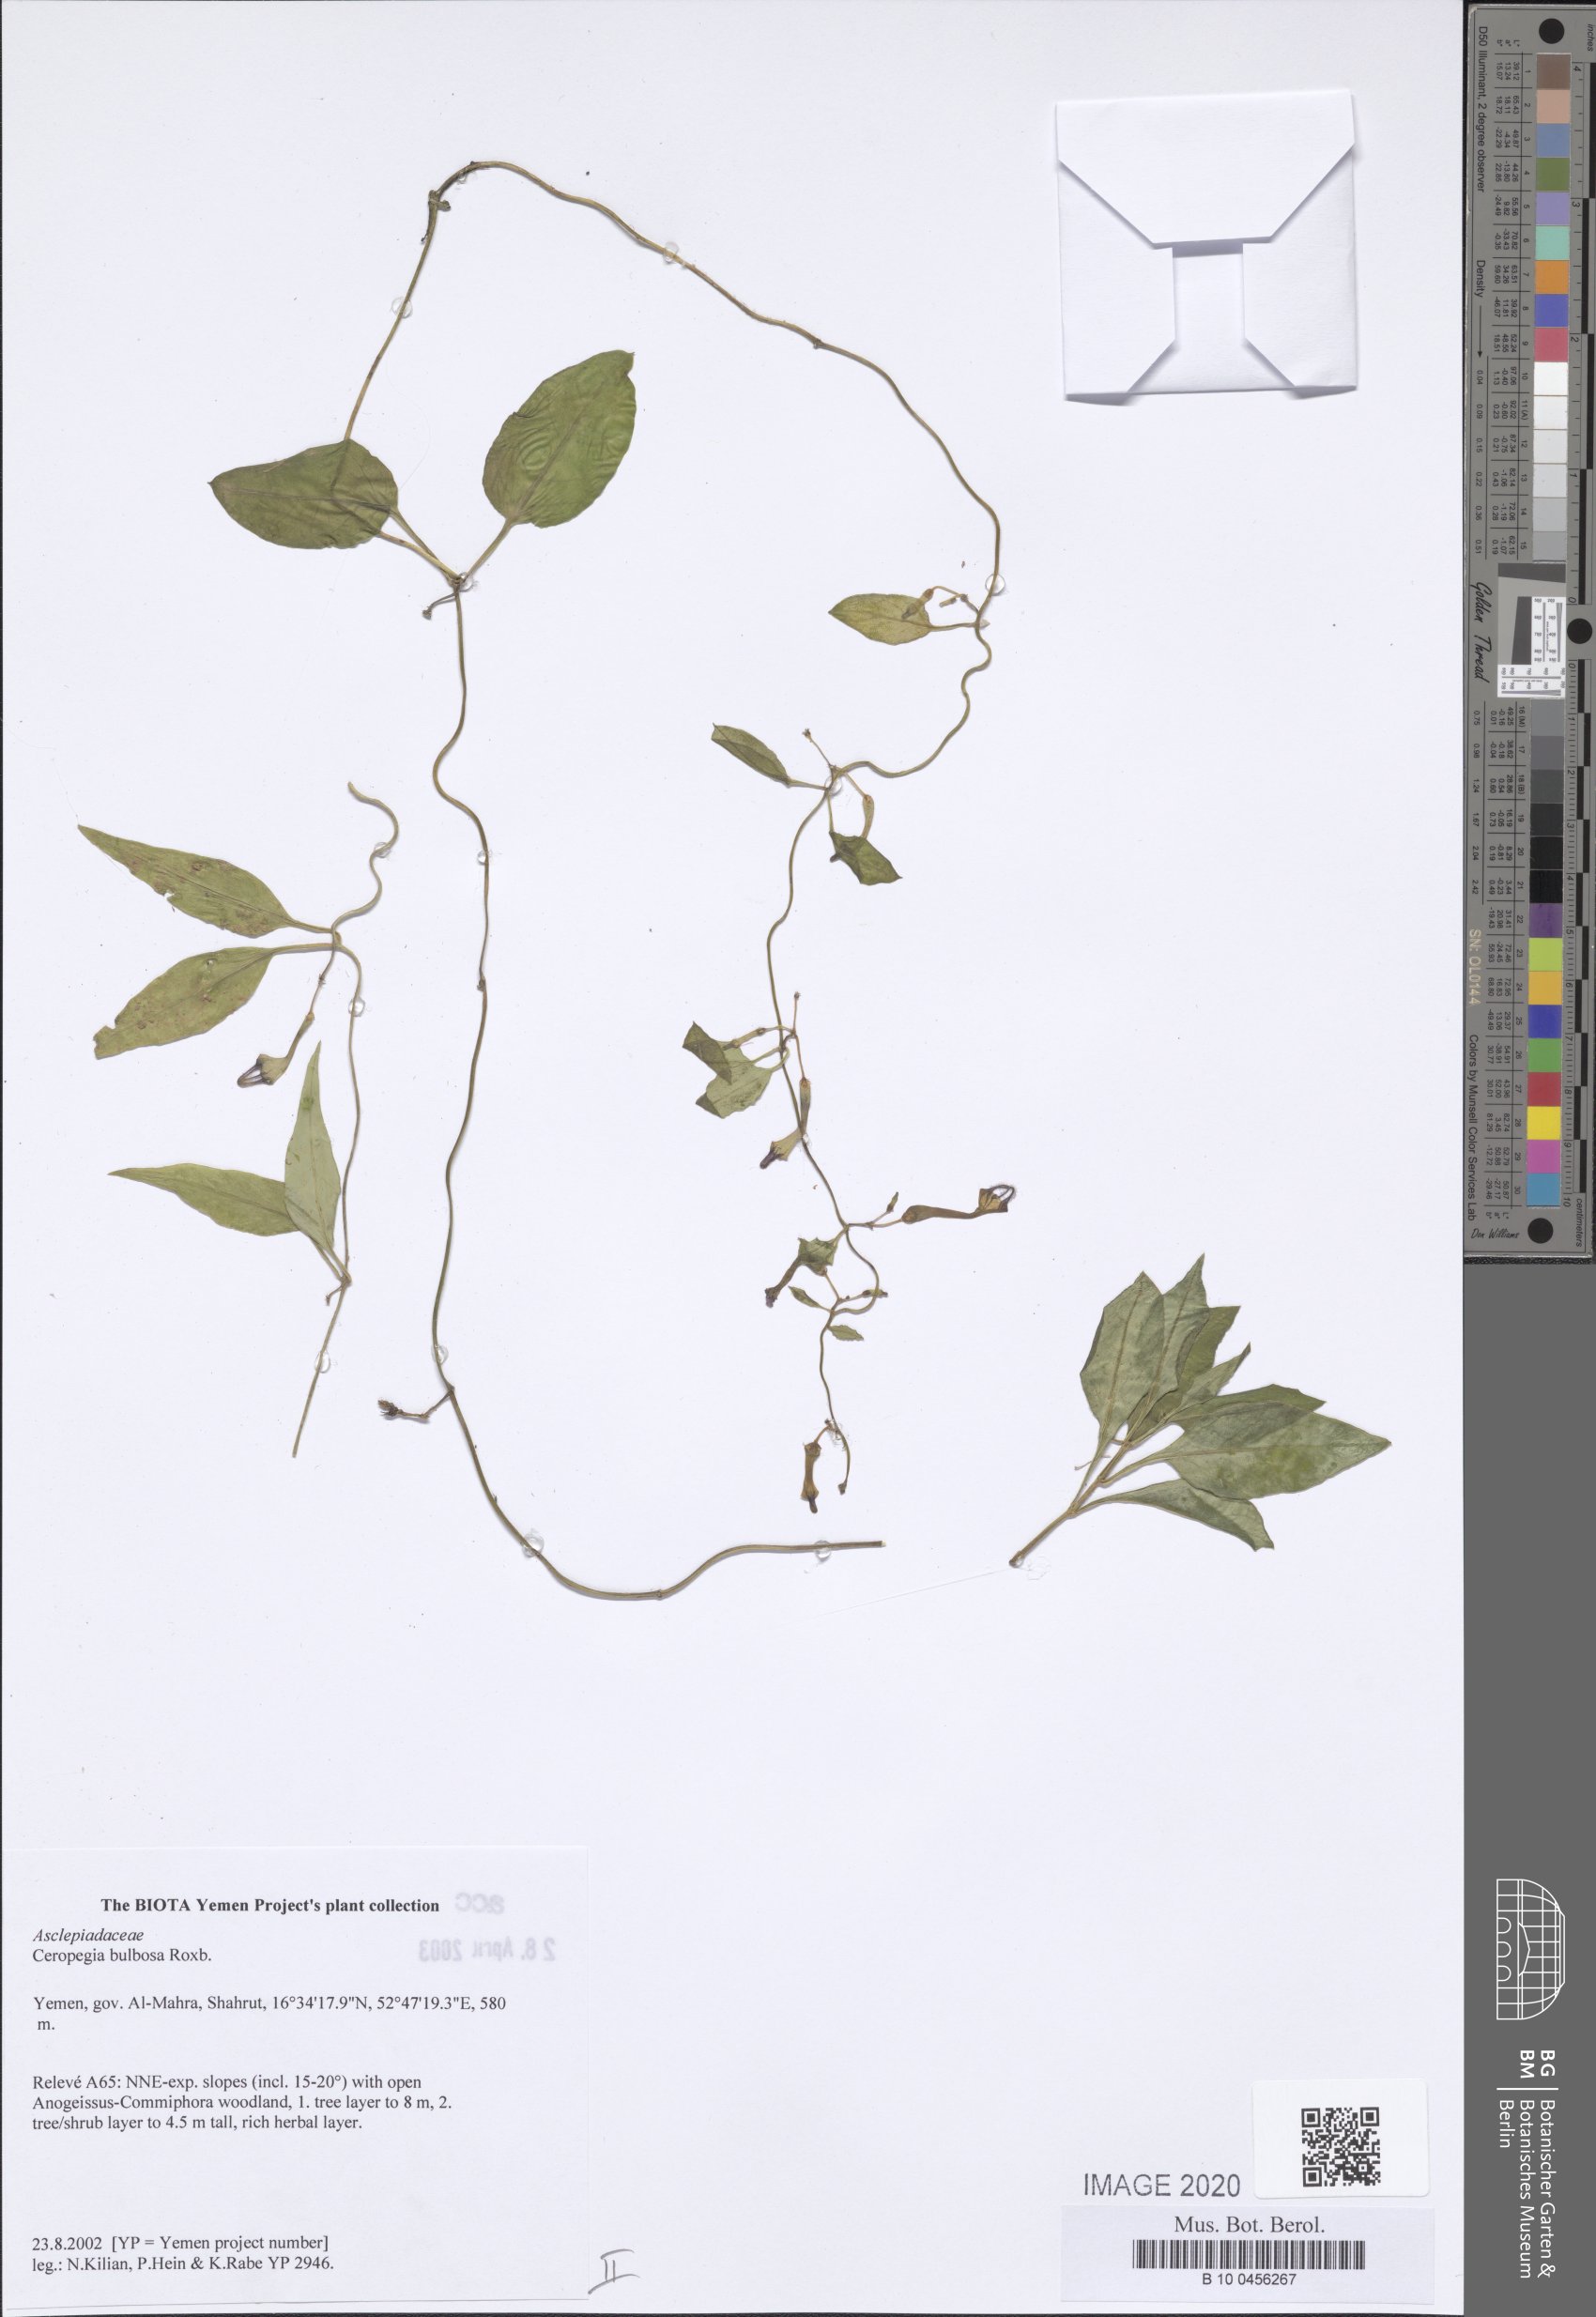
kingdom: Plantae
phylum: Tracheophyta
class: Magnoliopsida
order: Gentianales
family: Apocynaceae
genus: Ceropegia
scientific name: Ceropegia bulbosa
